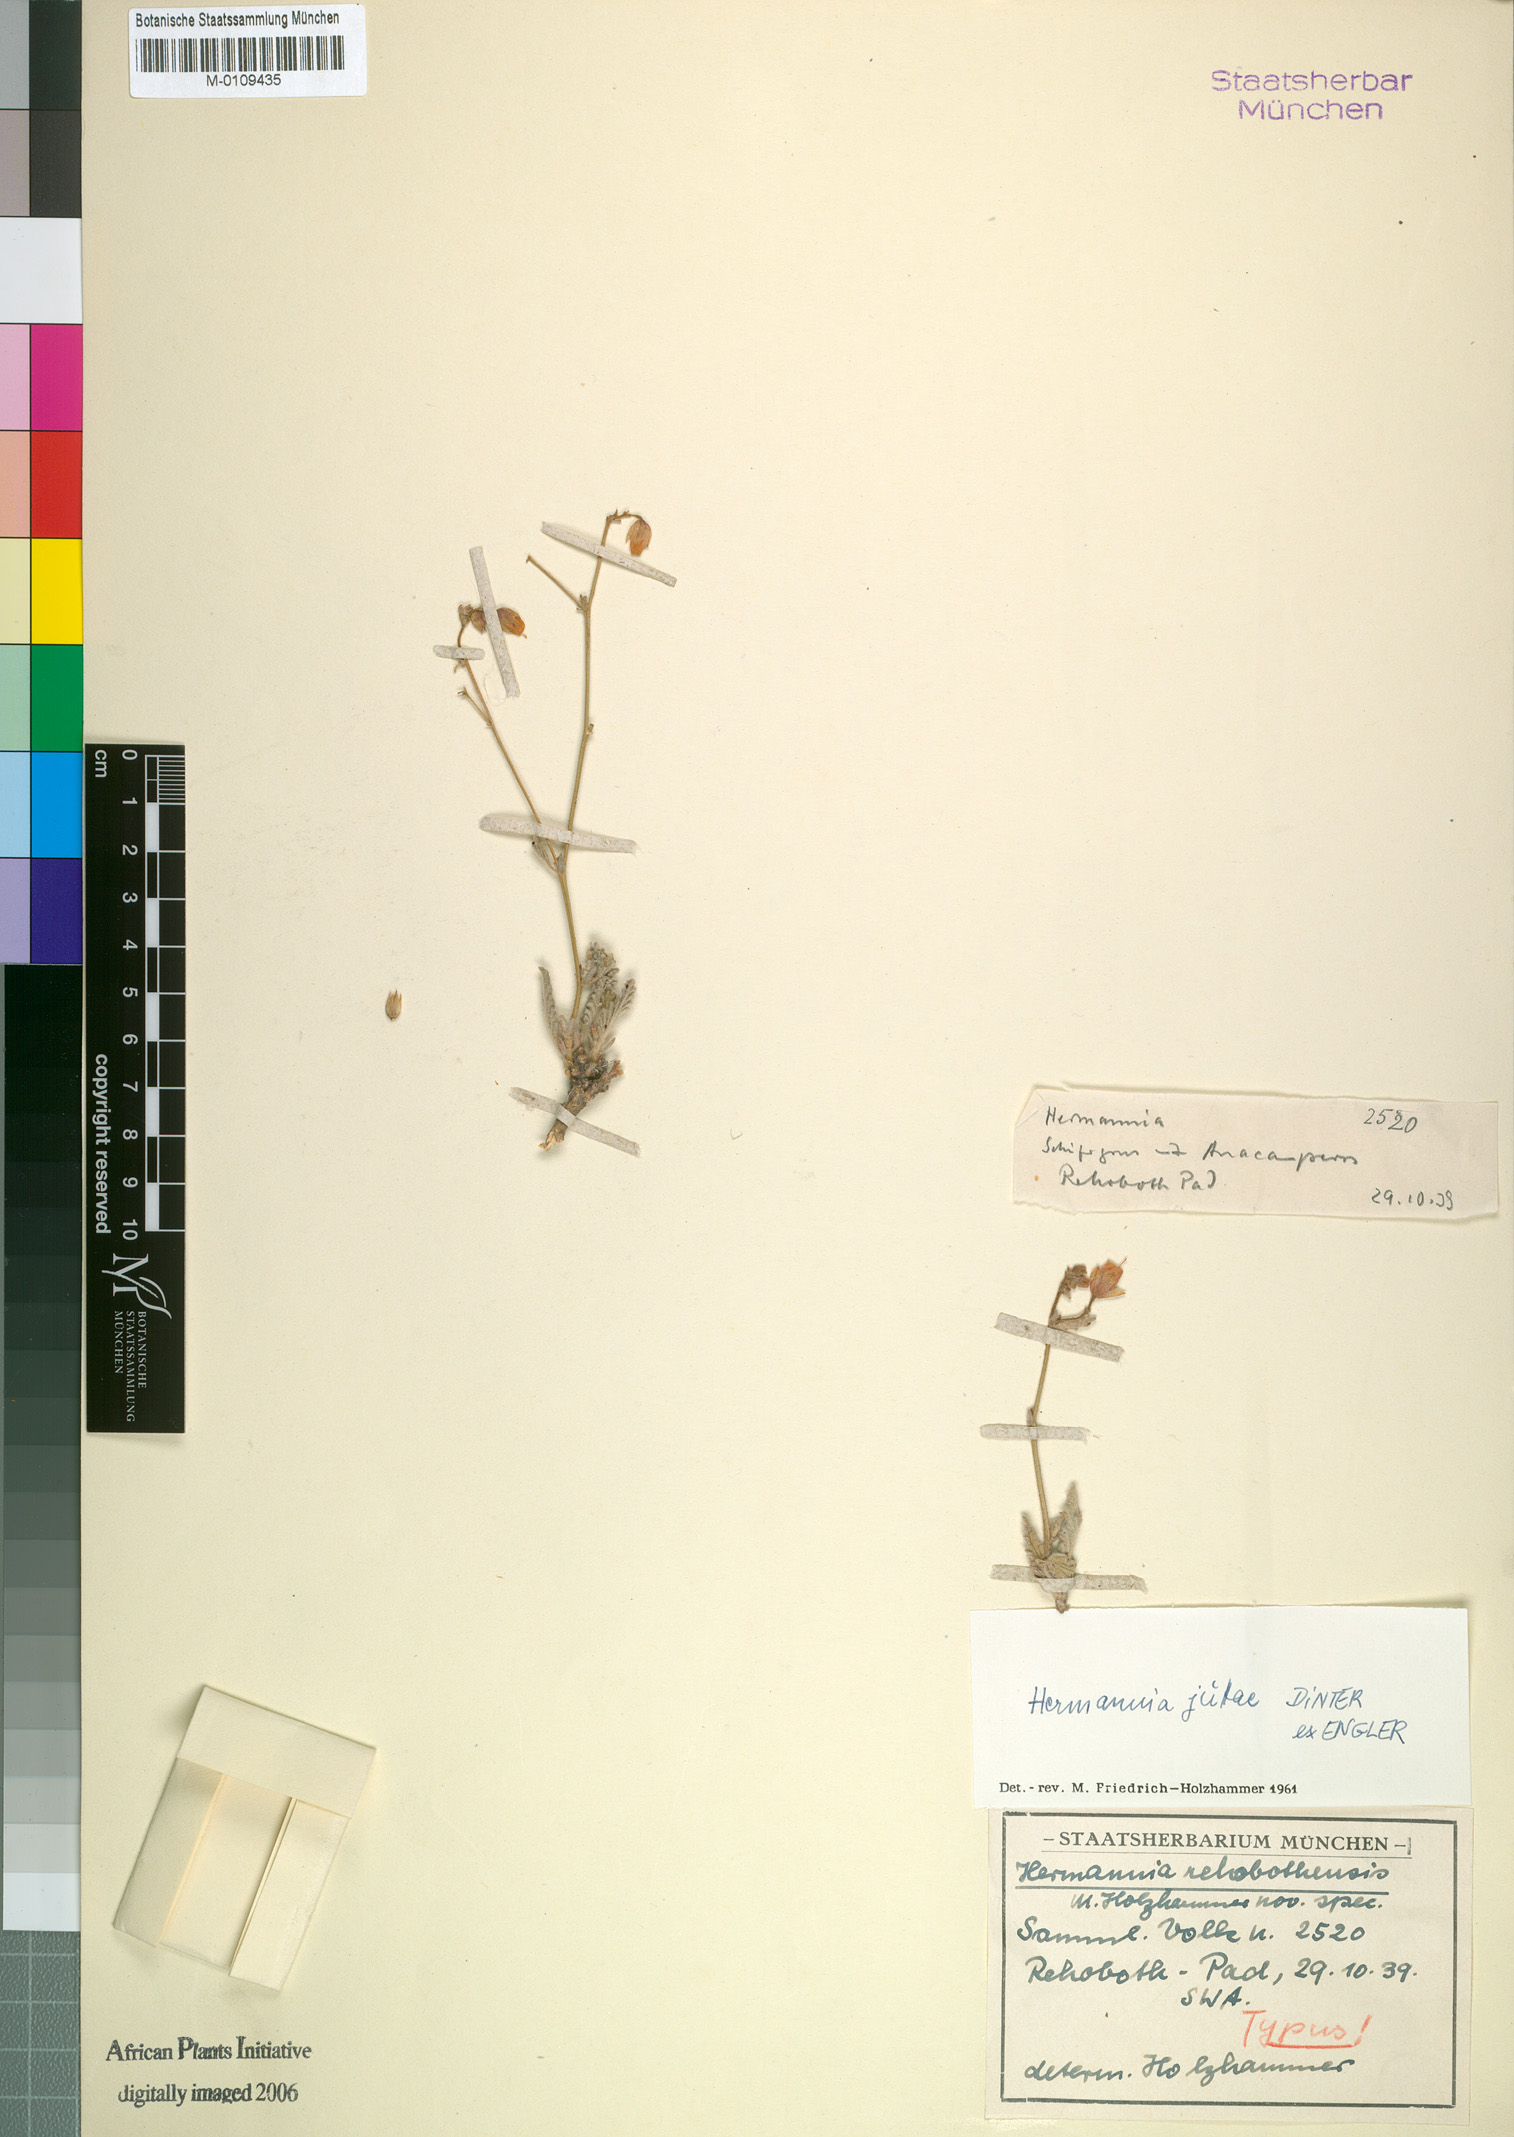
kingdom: Plantae
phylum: Tracheophyta
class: Magnoliopsida
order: Malvales
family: Malvaceae
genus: Hermannia
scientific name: Hermannia juttae
